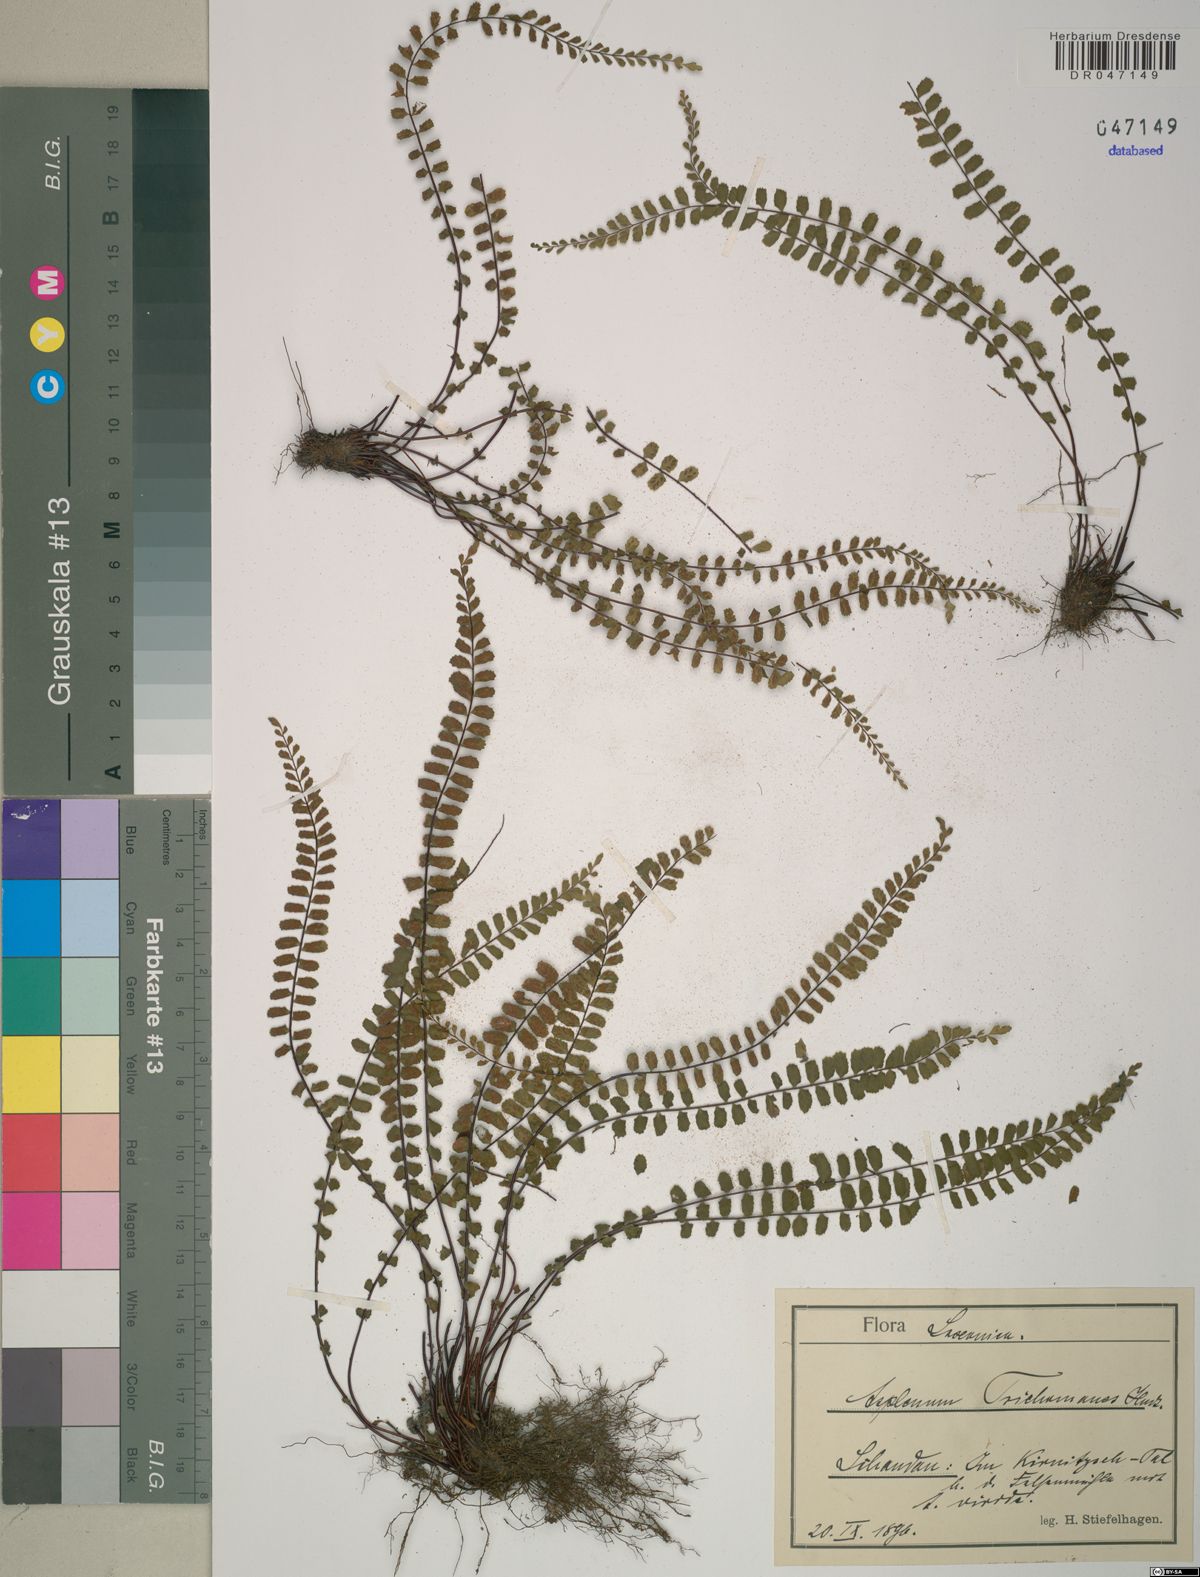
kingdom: Plantae
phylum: Tracheophyta
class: Polypodiopsida
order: Polypodiales
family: Aspleniaceae
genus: Asplenium
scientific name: Asplenium trichomanes
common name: Maidenhair spleenwort
